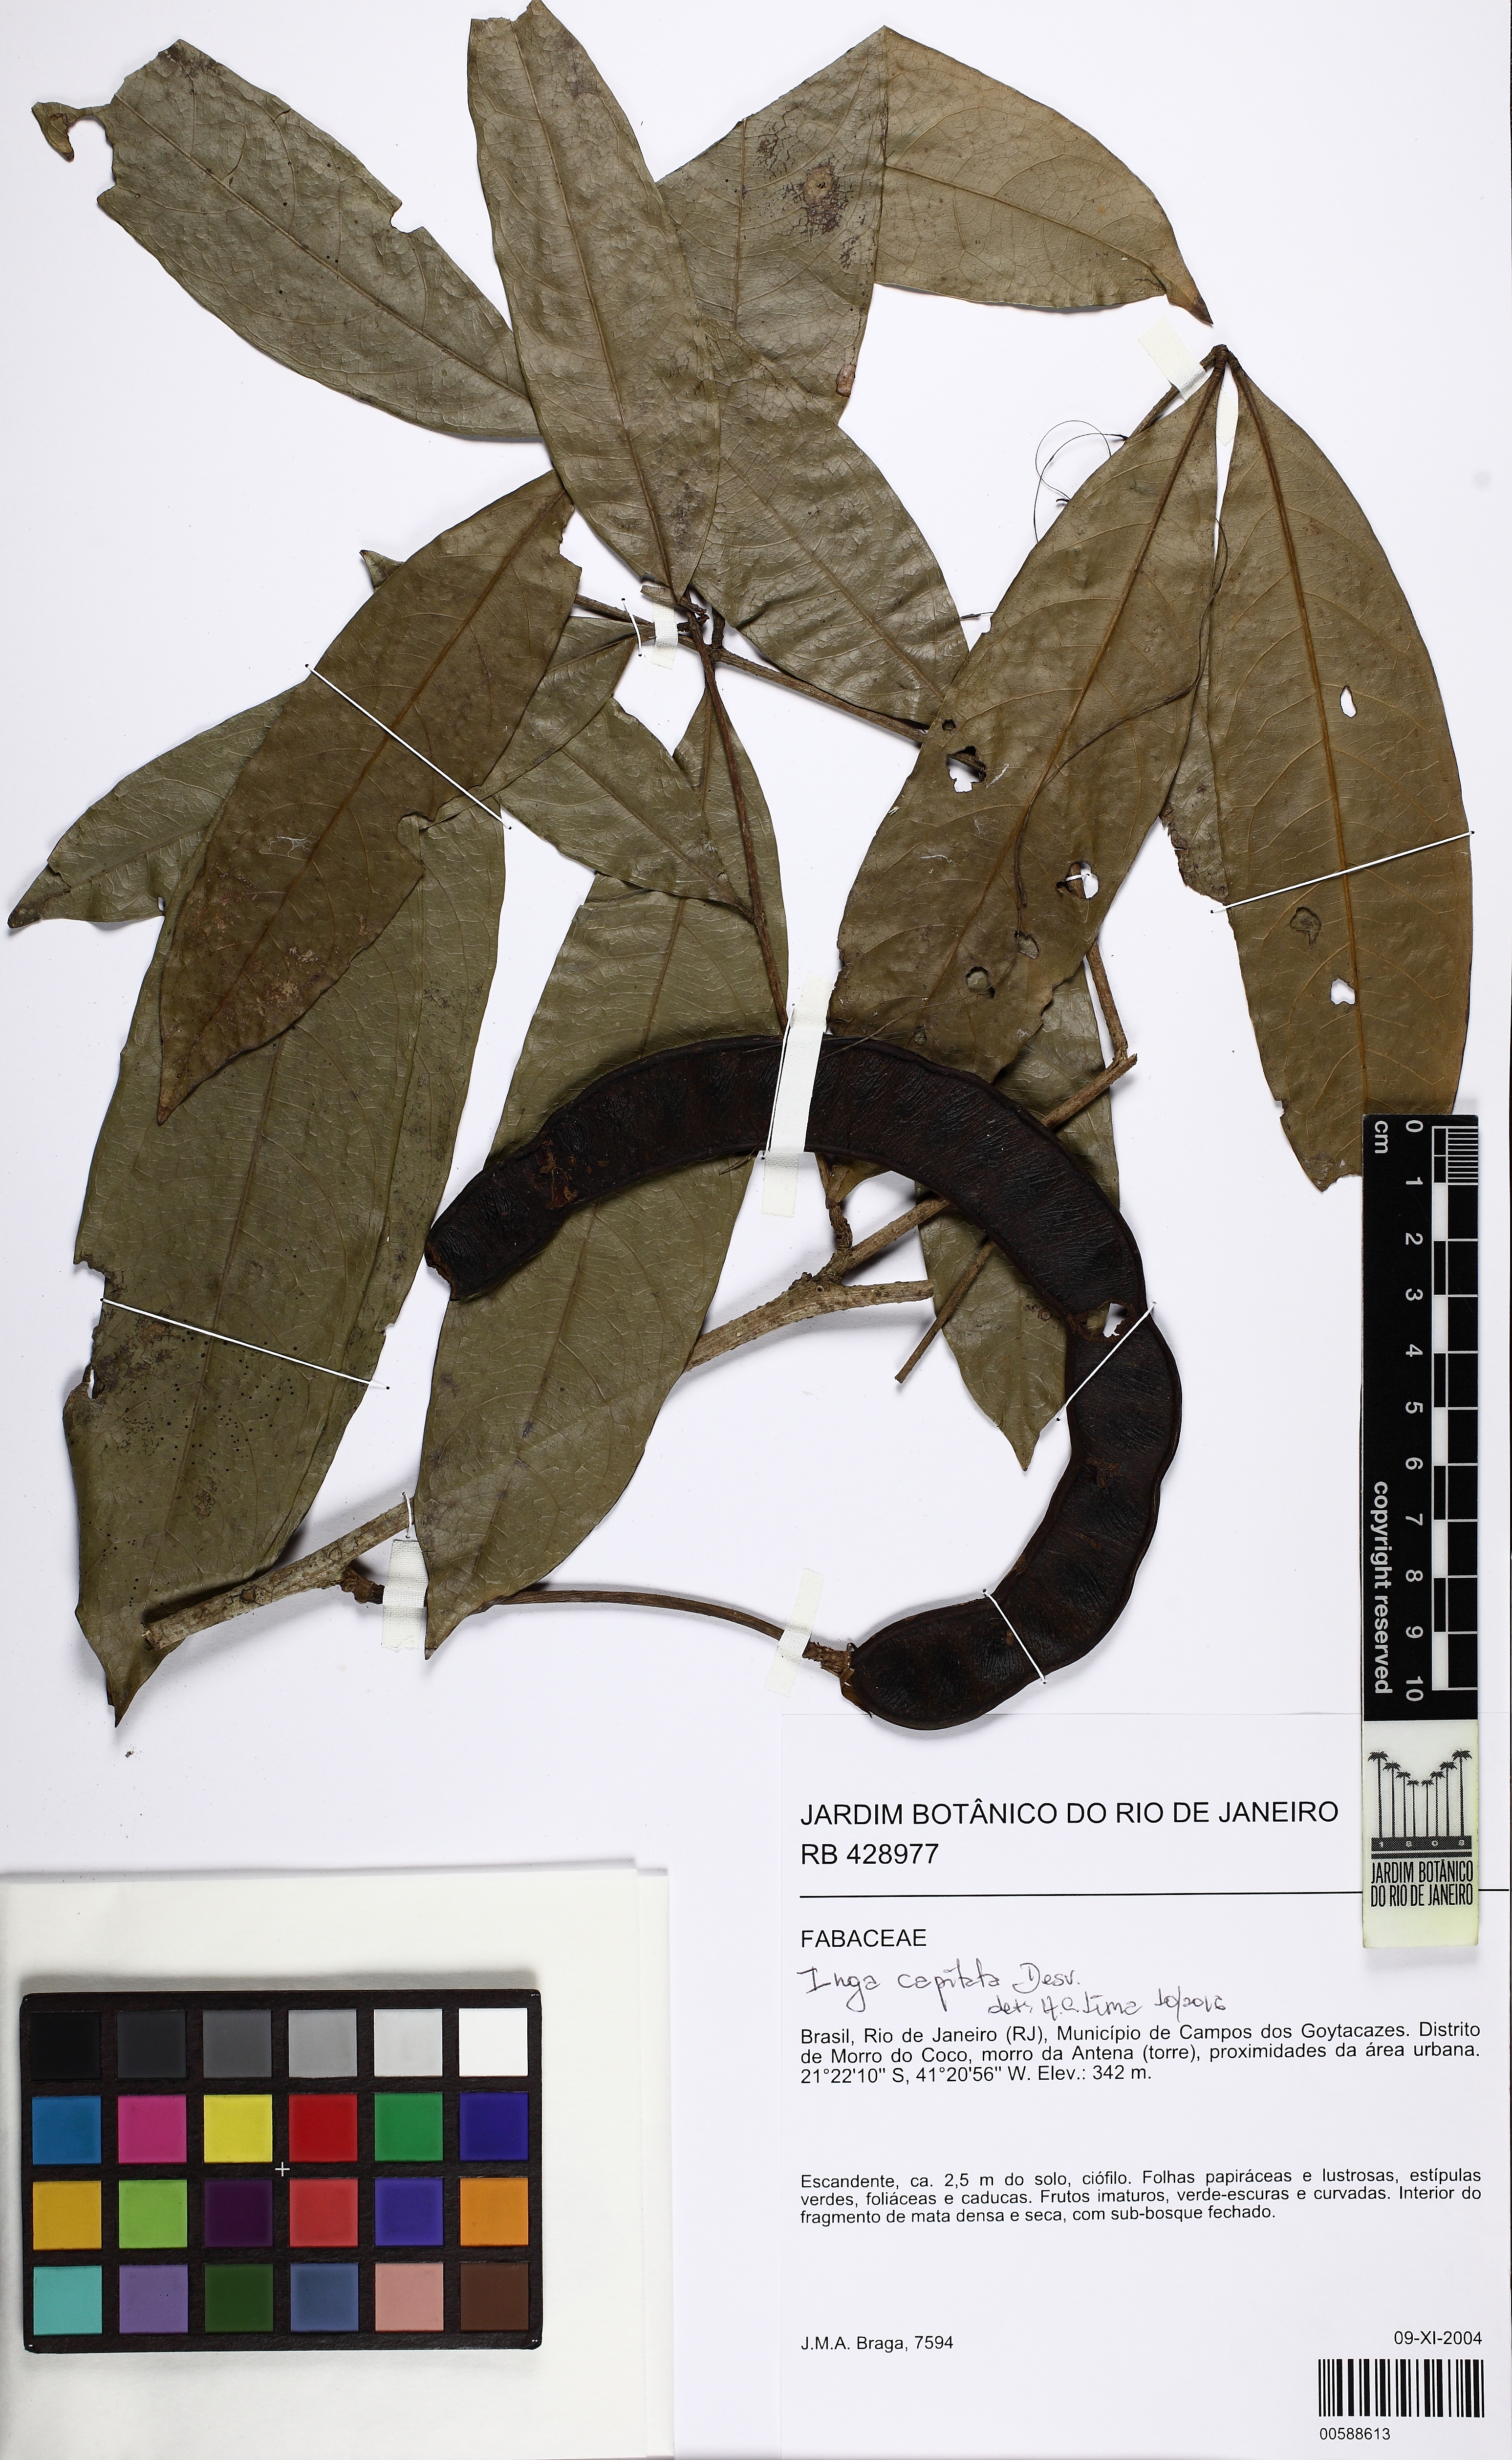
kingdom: Plantae
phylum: Tracheophyta
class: Magnoliopsida
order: Fabales
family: Fabaceae
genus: Inga
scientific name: Inga capitata
